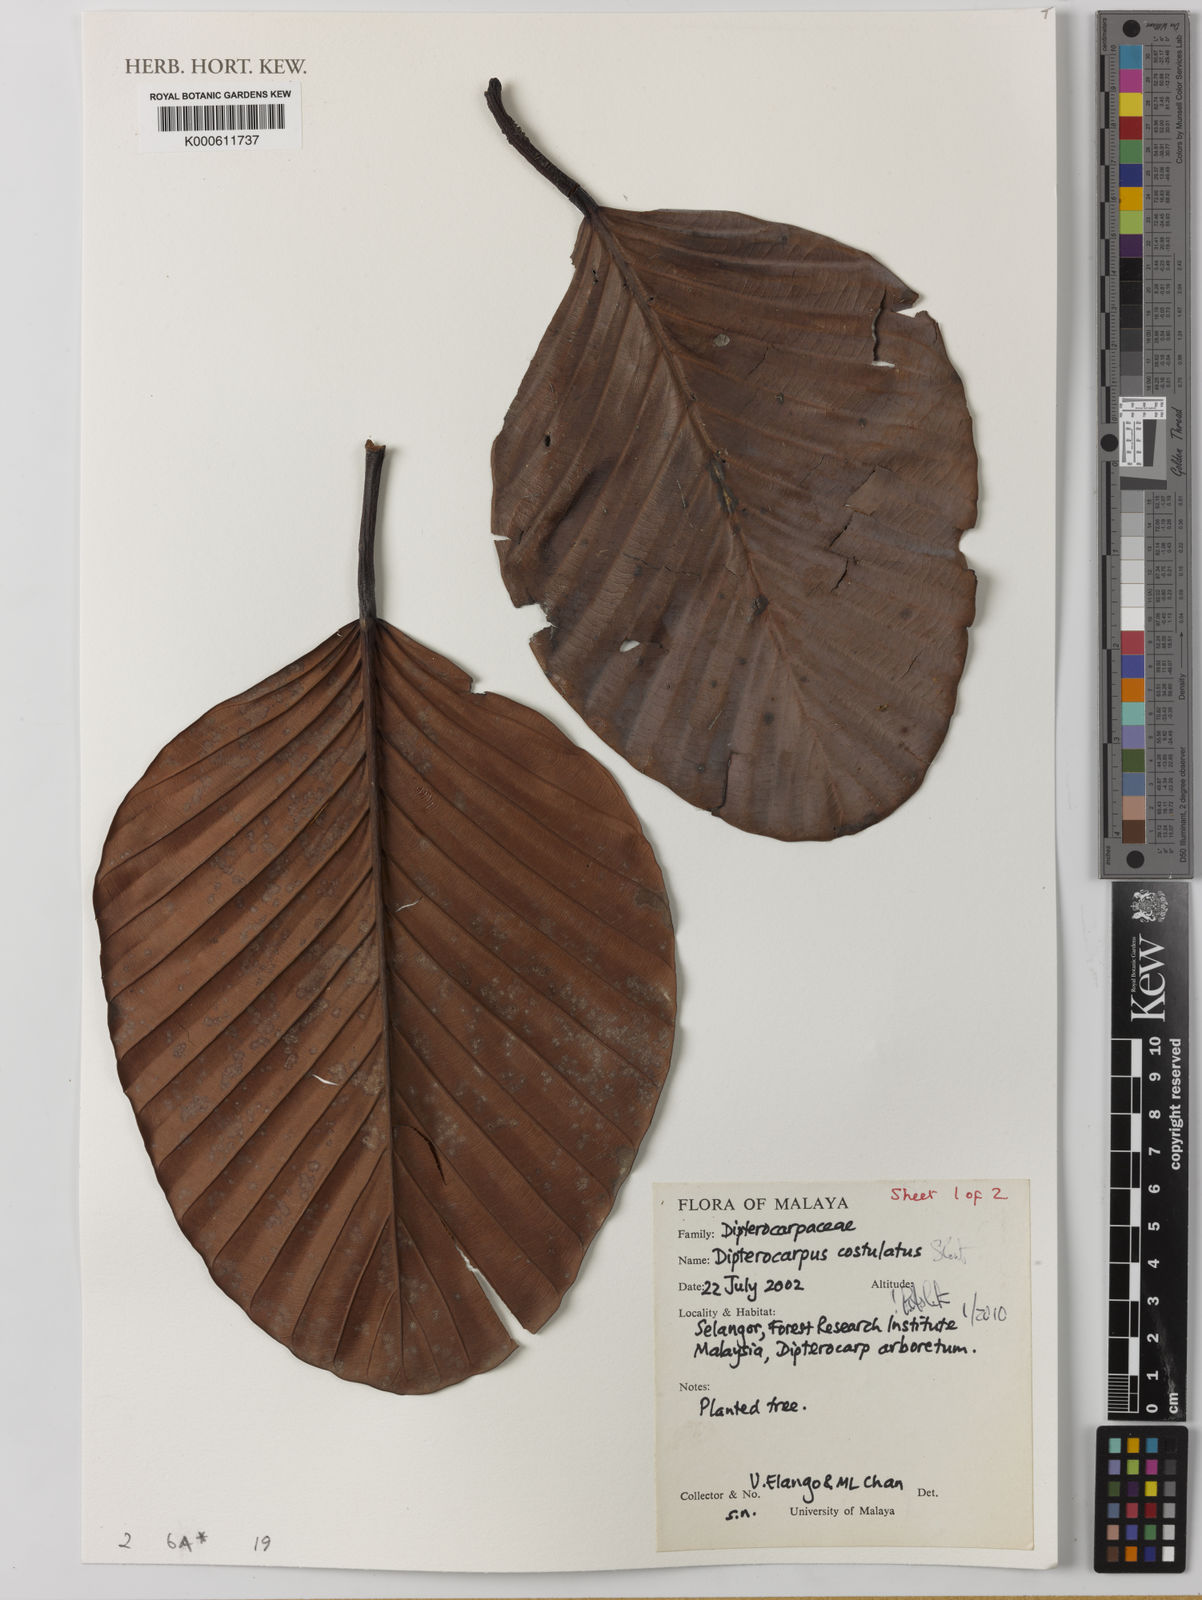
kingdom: Plantae
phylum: Tracheophyta
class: Magnoliopsida
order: Malvales
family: Dipterocarpaceae
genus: Dipterocarpus
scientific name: Dipterocarpus costulatus
